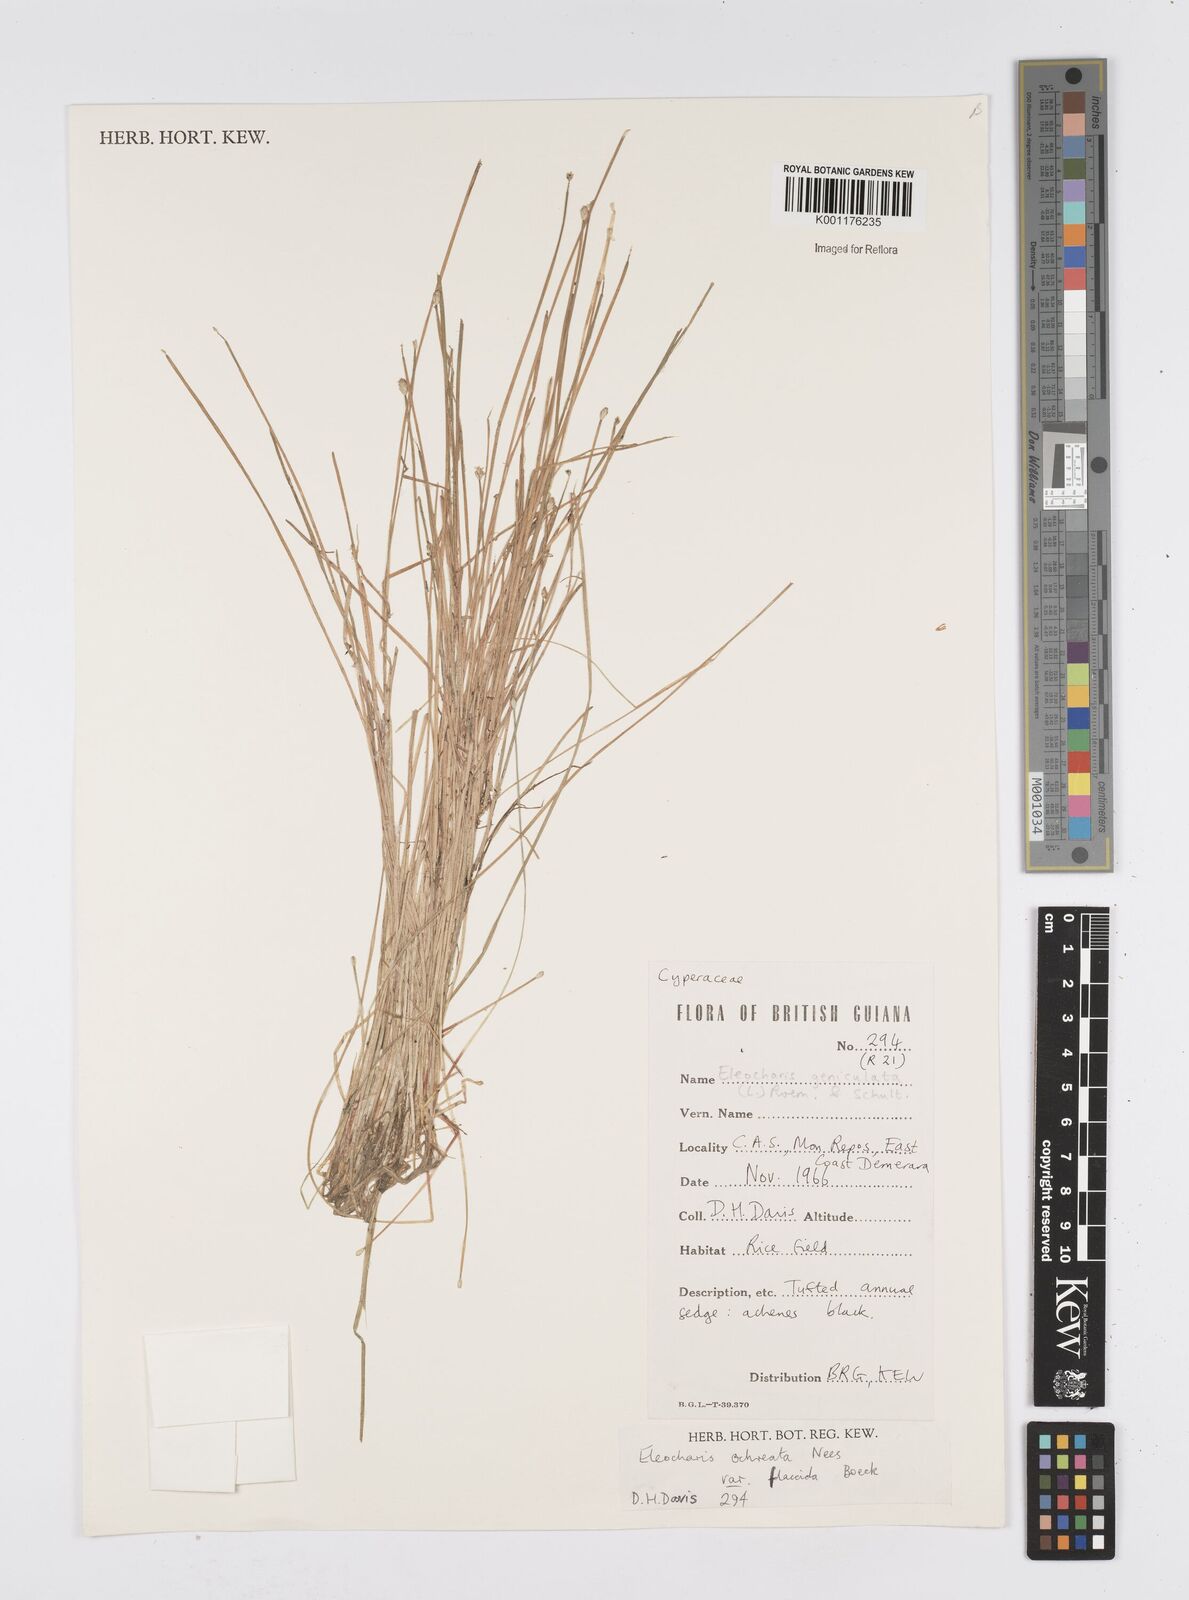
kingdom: Plantae
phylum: Tracheophyta
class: Liliopsida
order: Poales
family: Cyperaceae
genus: Eleocharis
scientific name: Eleocharis flavescens
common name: Yellow spikerush
